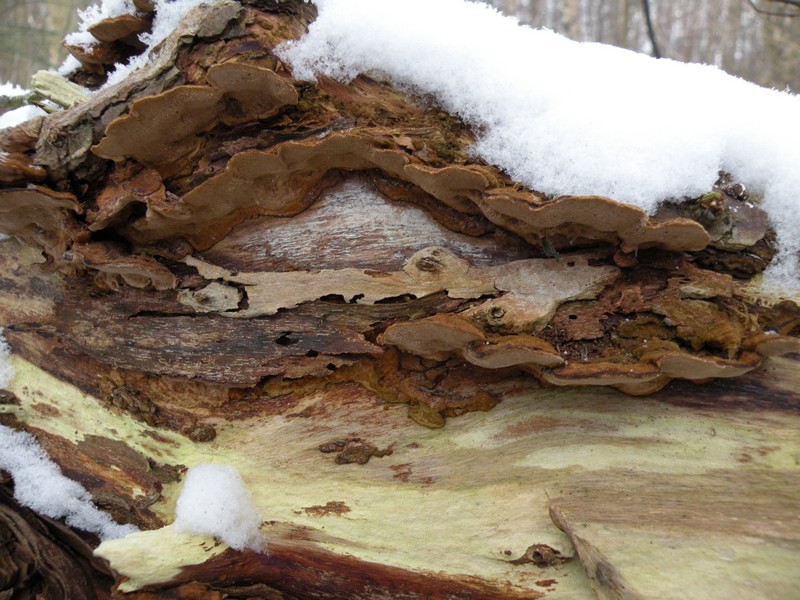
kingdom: Fungi
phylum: Basidiomycota
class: Agaricomycetes
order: Hymenochaetales
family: Hymenochaetaceae
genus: Phellinopsis
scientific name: Phellinopsis conchata
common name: pile-ildporesvamp
